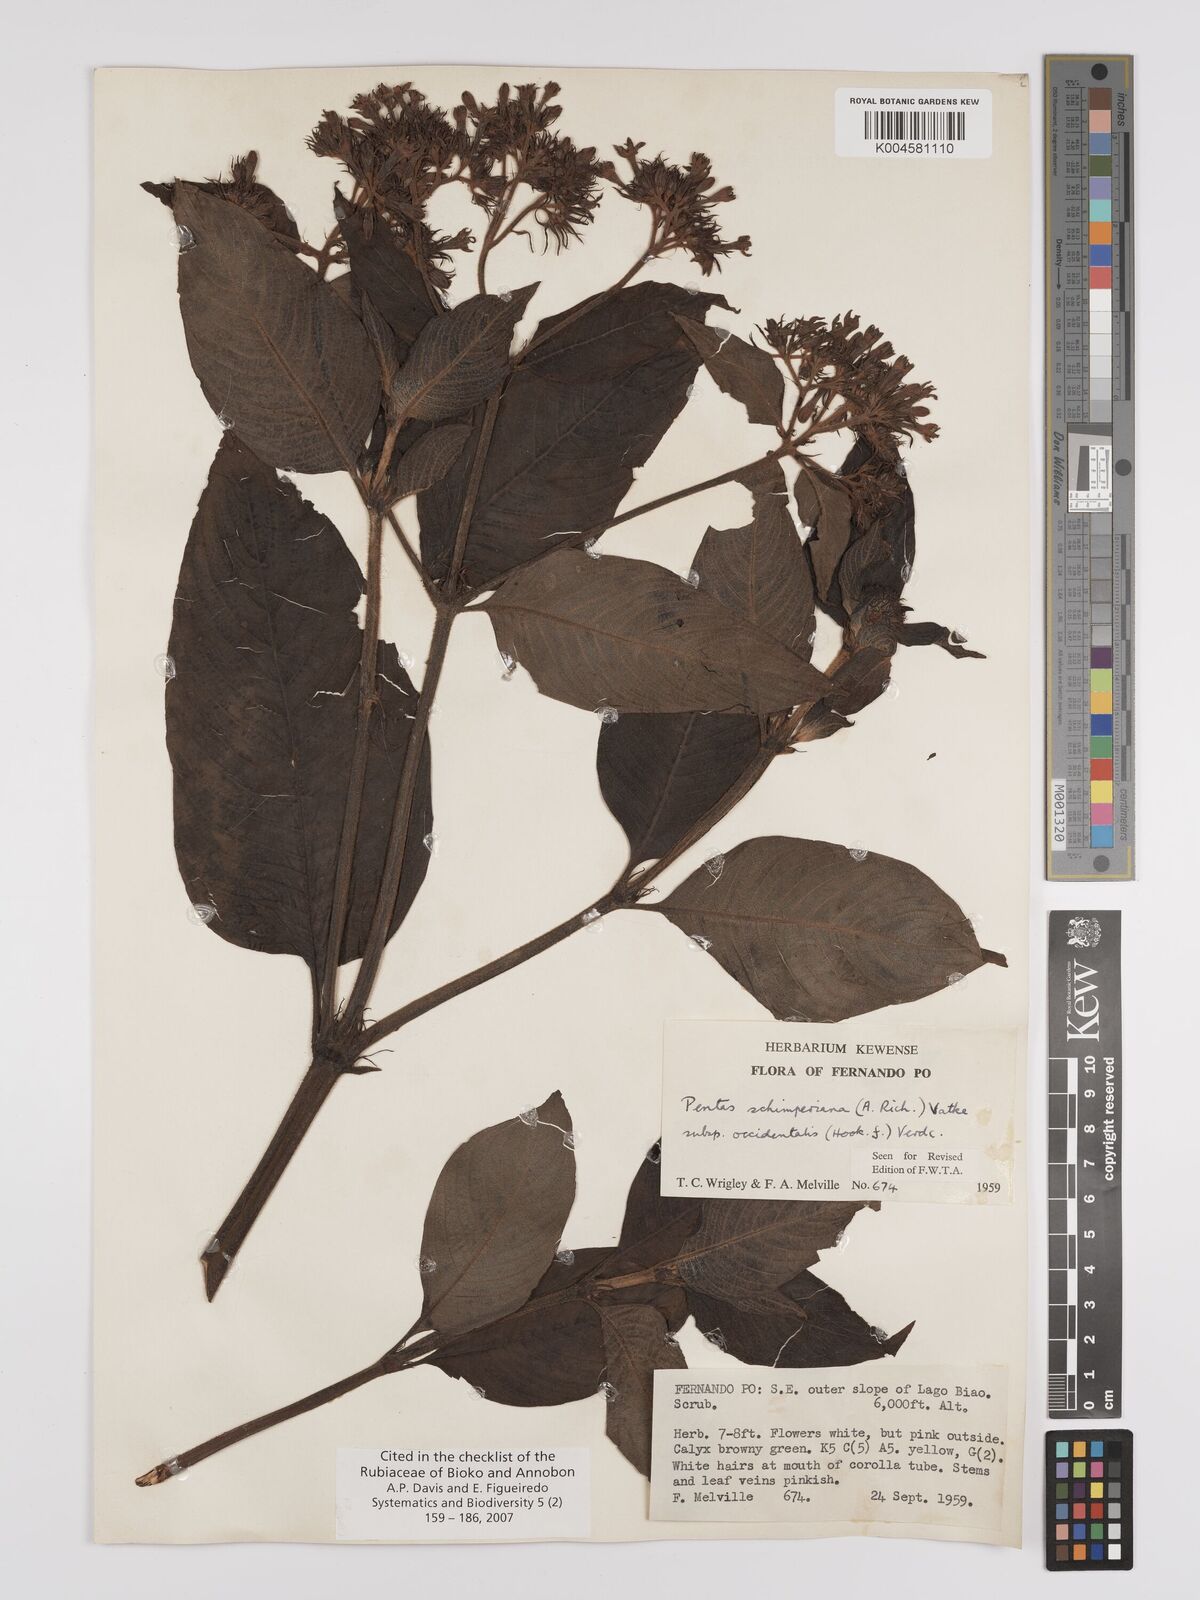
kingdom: Plantae
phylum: Tracheophyta
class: Magnoliopsida
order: Gentianales
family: Rubiaceae
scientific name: Rubiaceae
